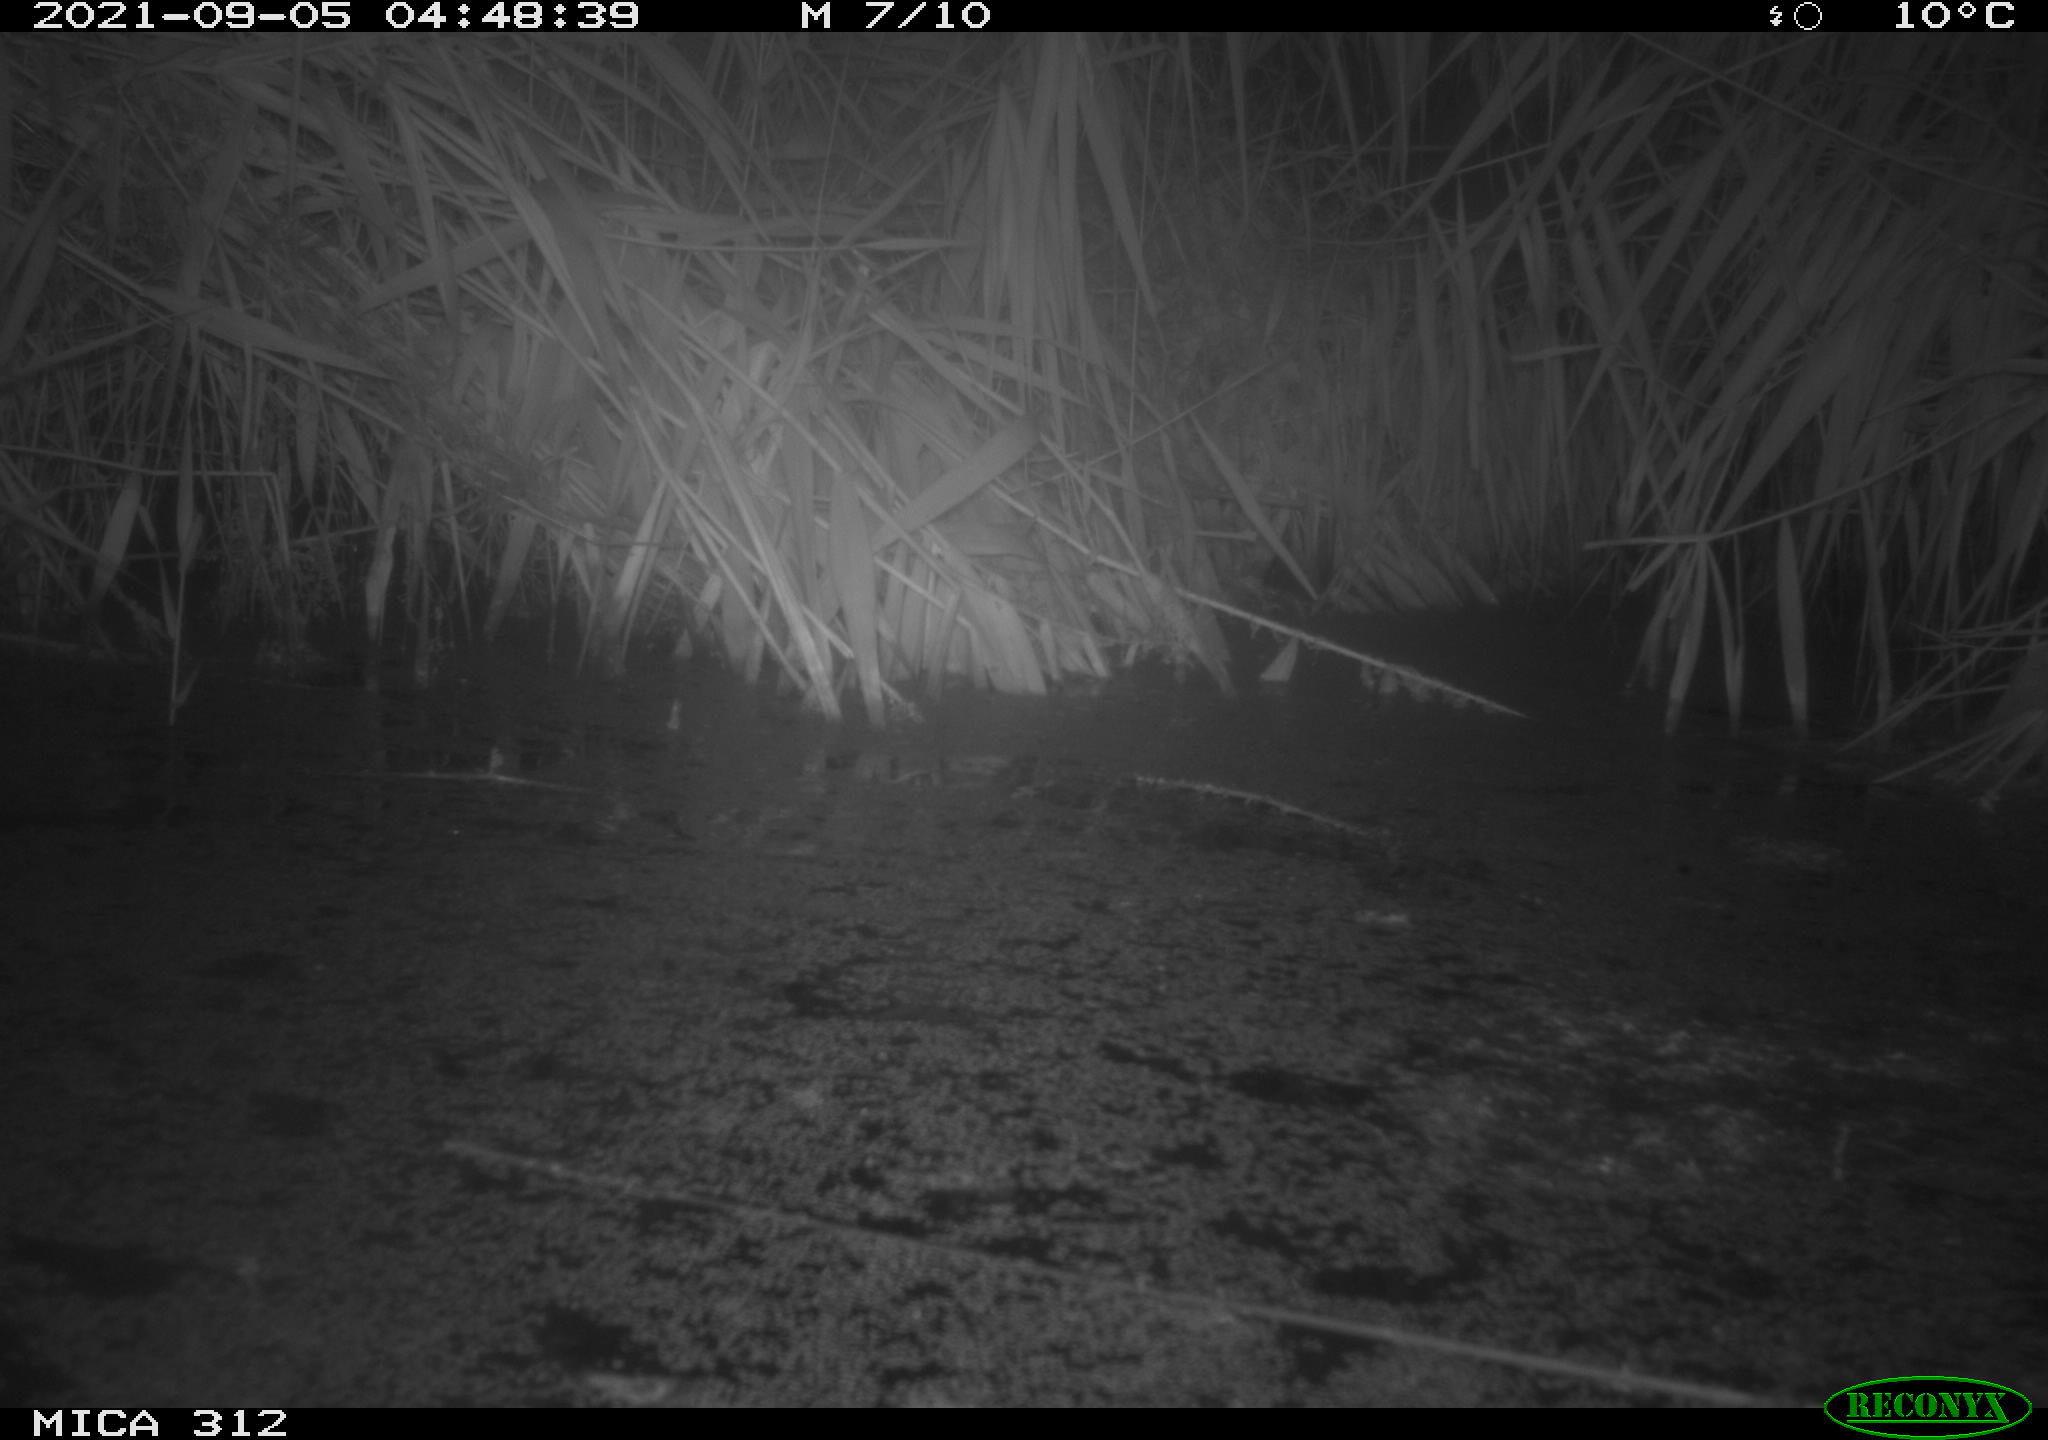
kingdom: Animalia
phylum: Chordata
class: Mammalia
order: Rodentia
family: Muridae
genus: Rattus
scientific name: Rattus norvegicus
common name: Brown rat
